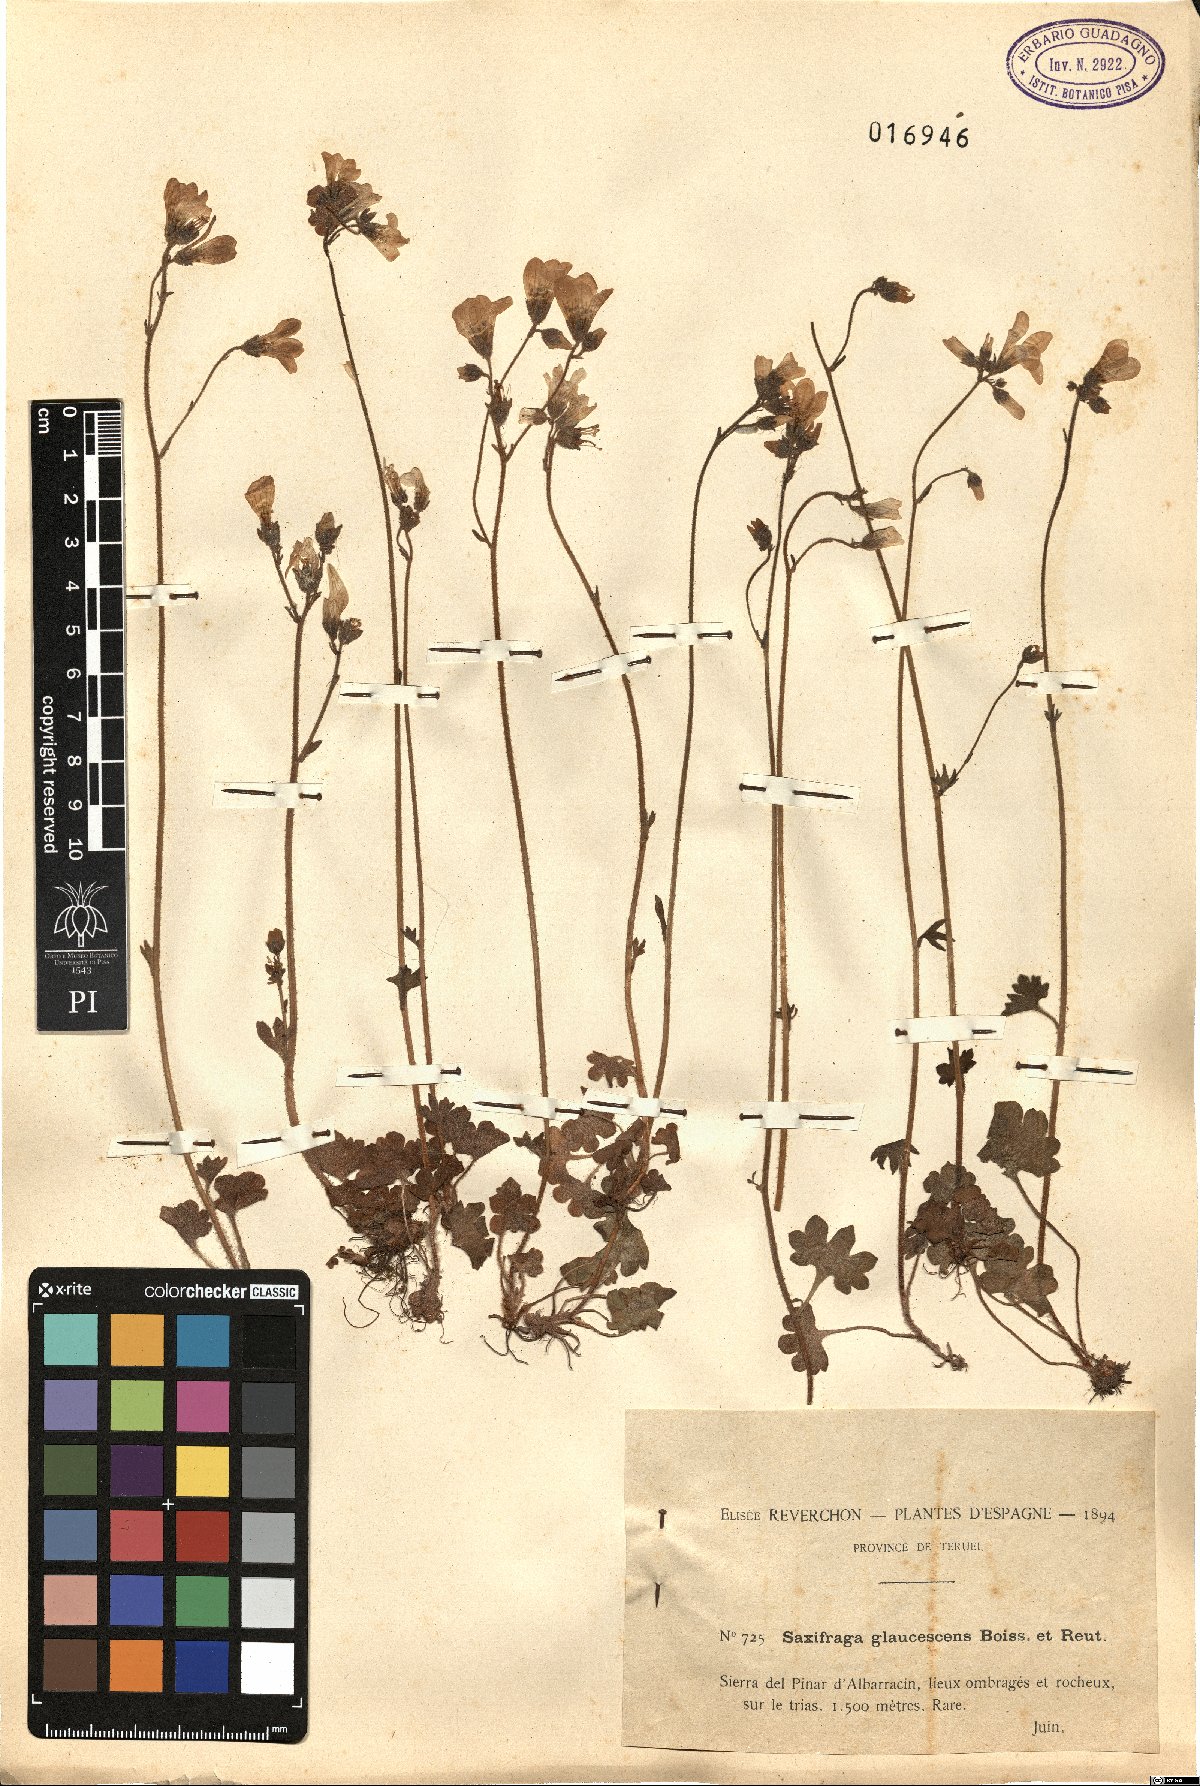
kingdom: Plantae
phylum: Tracheophyta
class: Magnoliopsida
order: Saxifragales
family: Saxifragaceae
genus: Saxifraga
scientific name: Saxifraga granulata
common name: Meadow saxifrage
